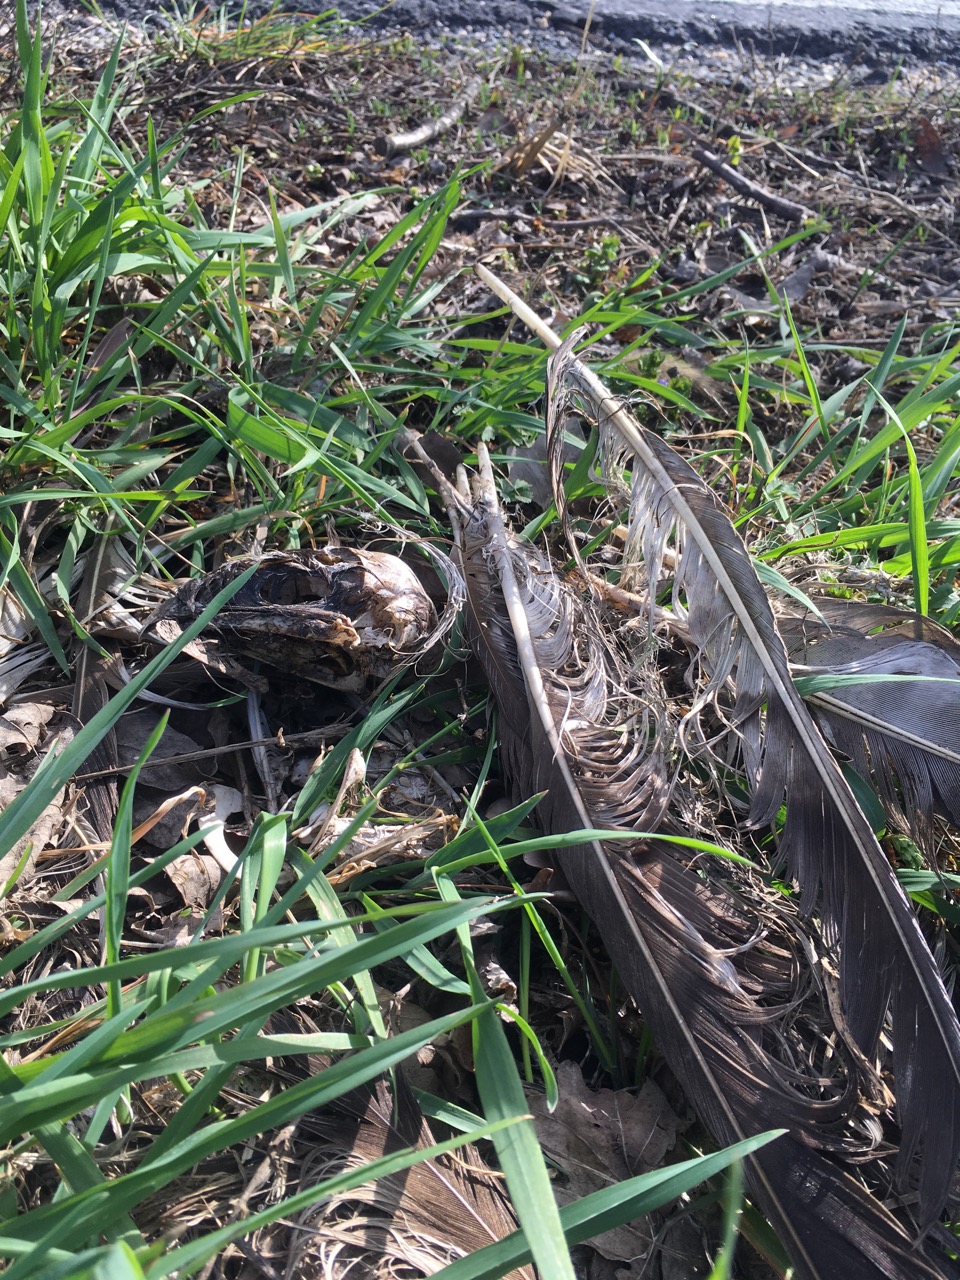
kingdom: Animalia
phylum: Chordata
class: Aves
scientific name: Aves
